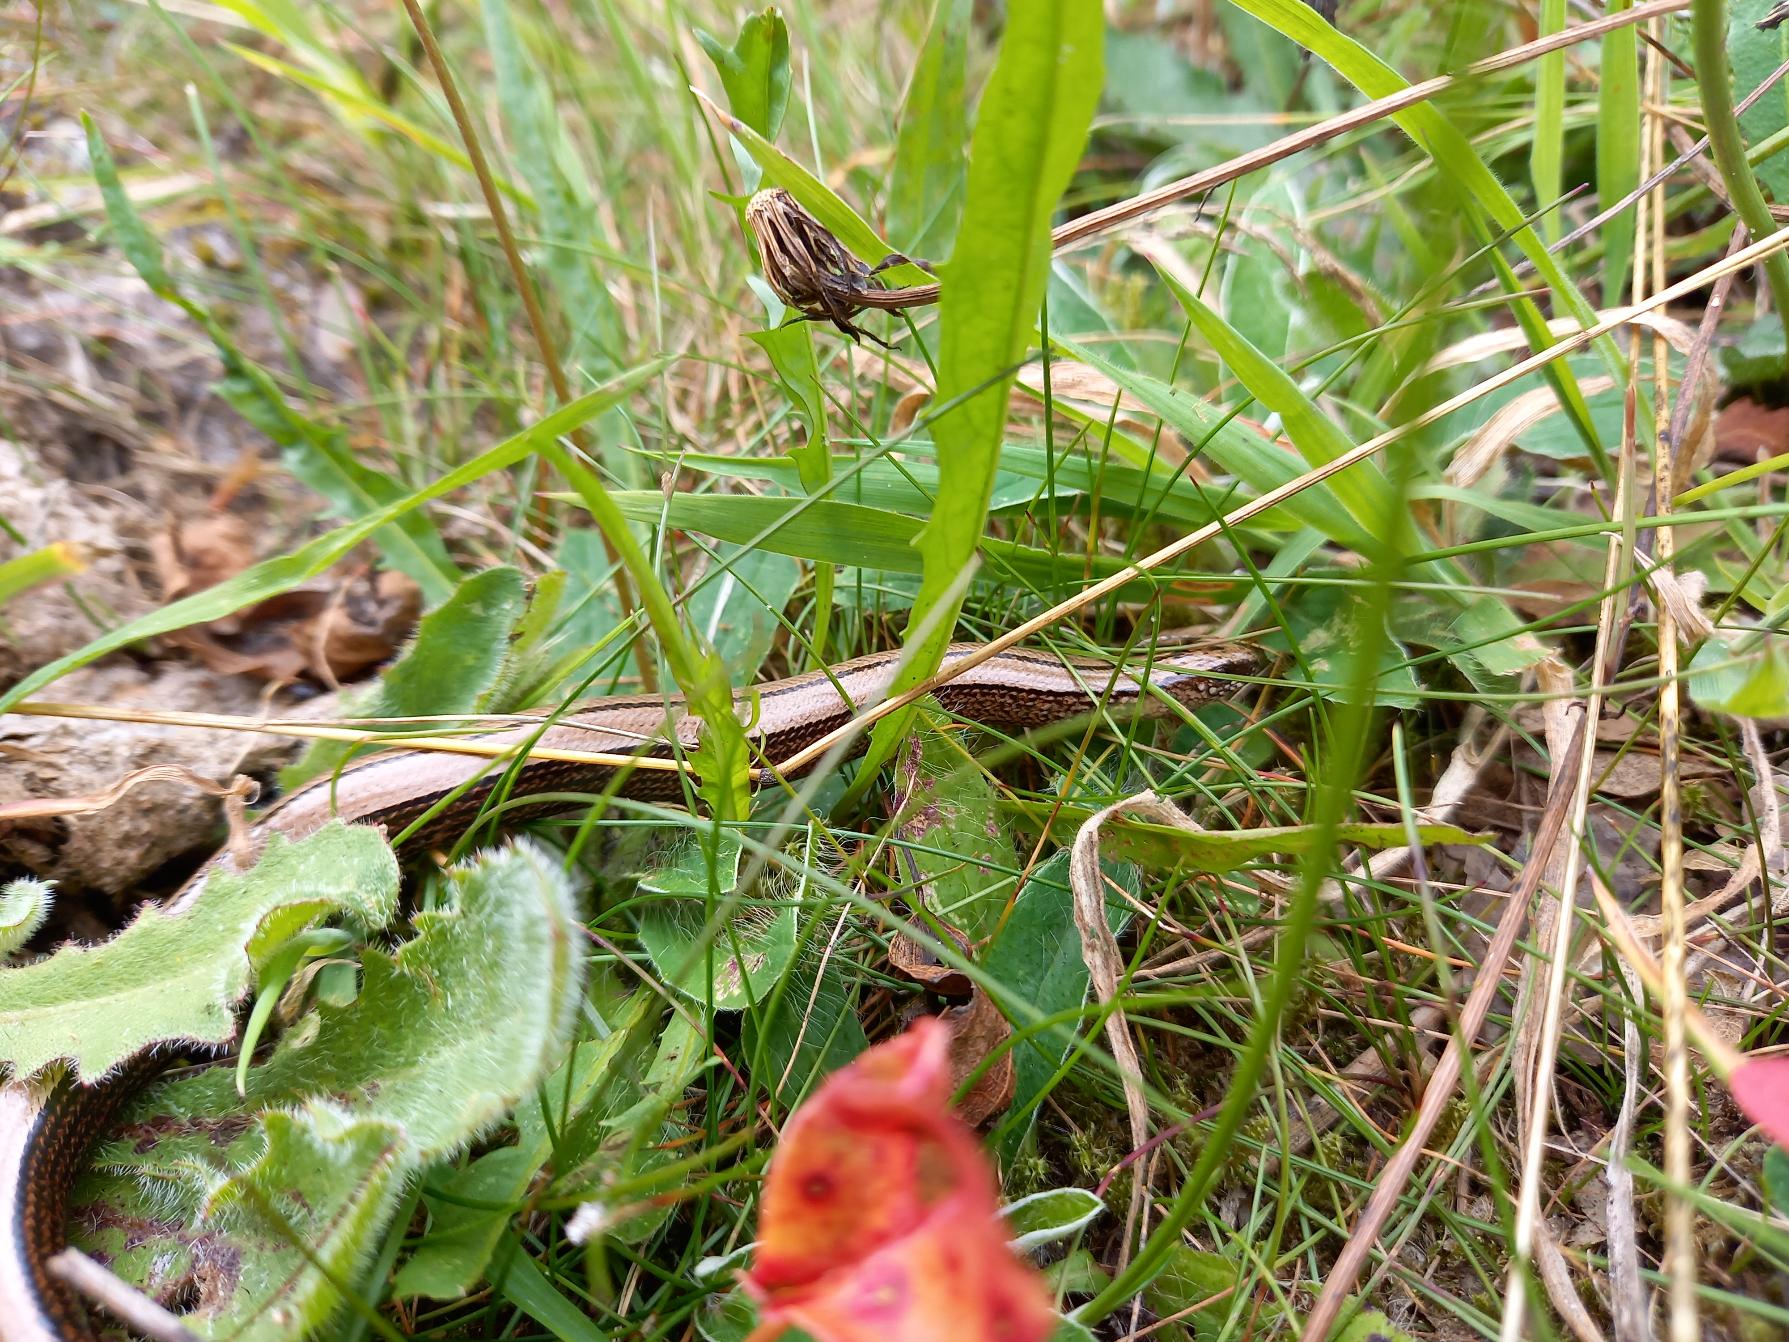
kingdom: Animalia
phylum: Chordata
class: Squamata
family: Anguidae
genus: Anguis
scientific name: Anguis fragilis
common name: Stålorm
